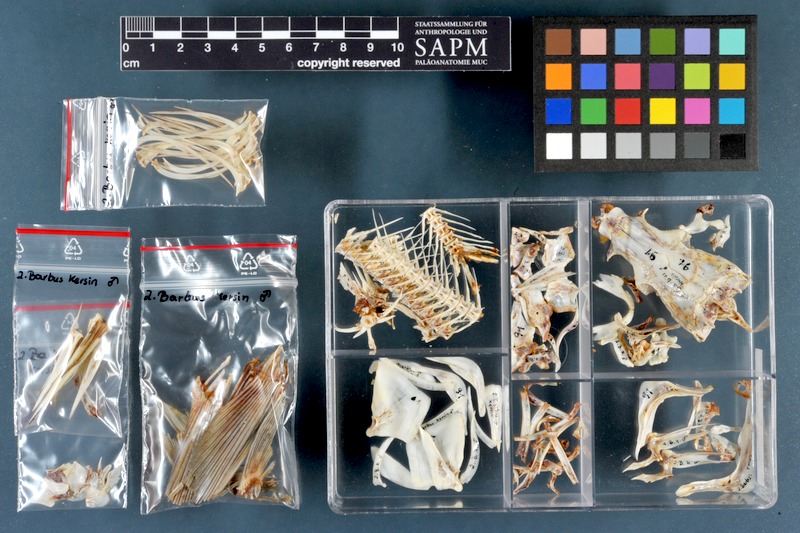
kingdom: Animalia
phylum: Chordata
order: Cypriniformes
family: Cyprinidae
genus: Luciobarbus
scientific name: Luciobarbus kersin
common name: Berzem
